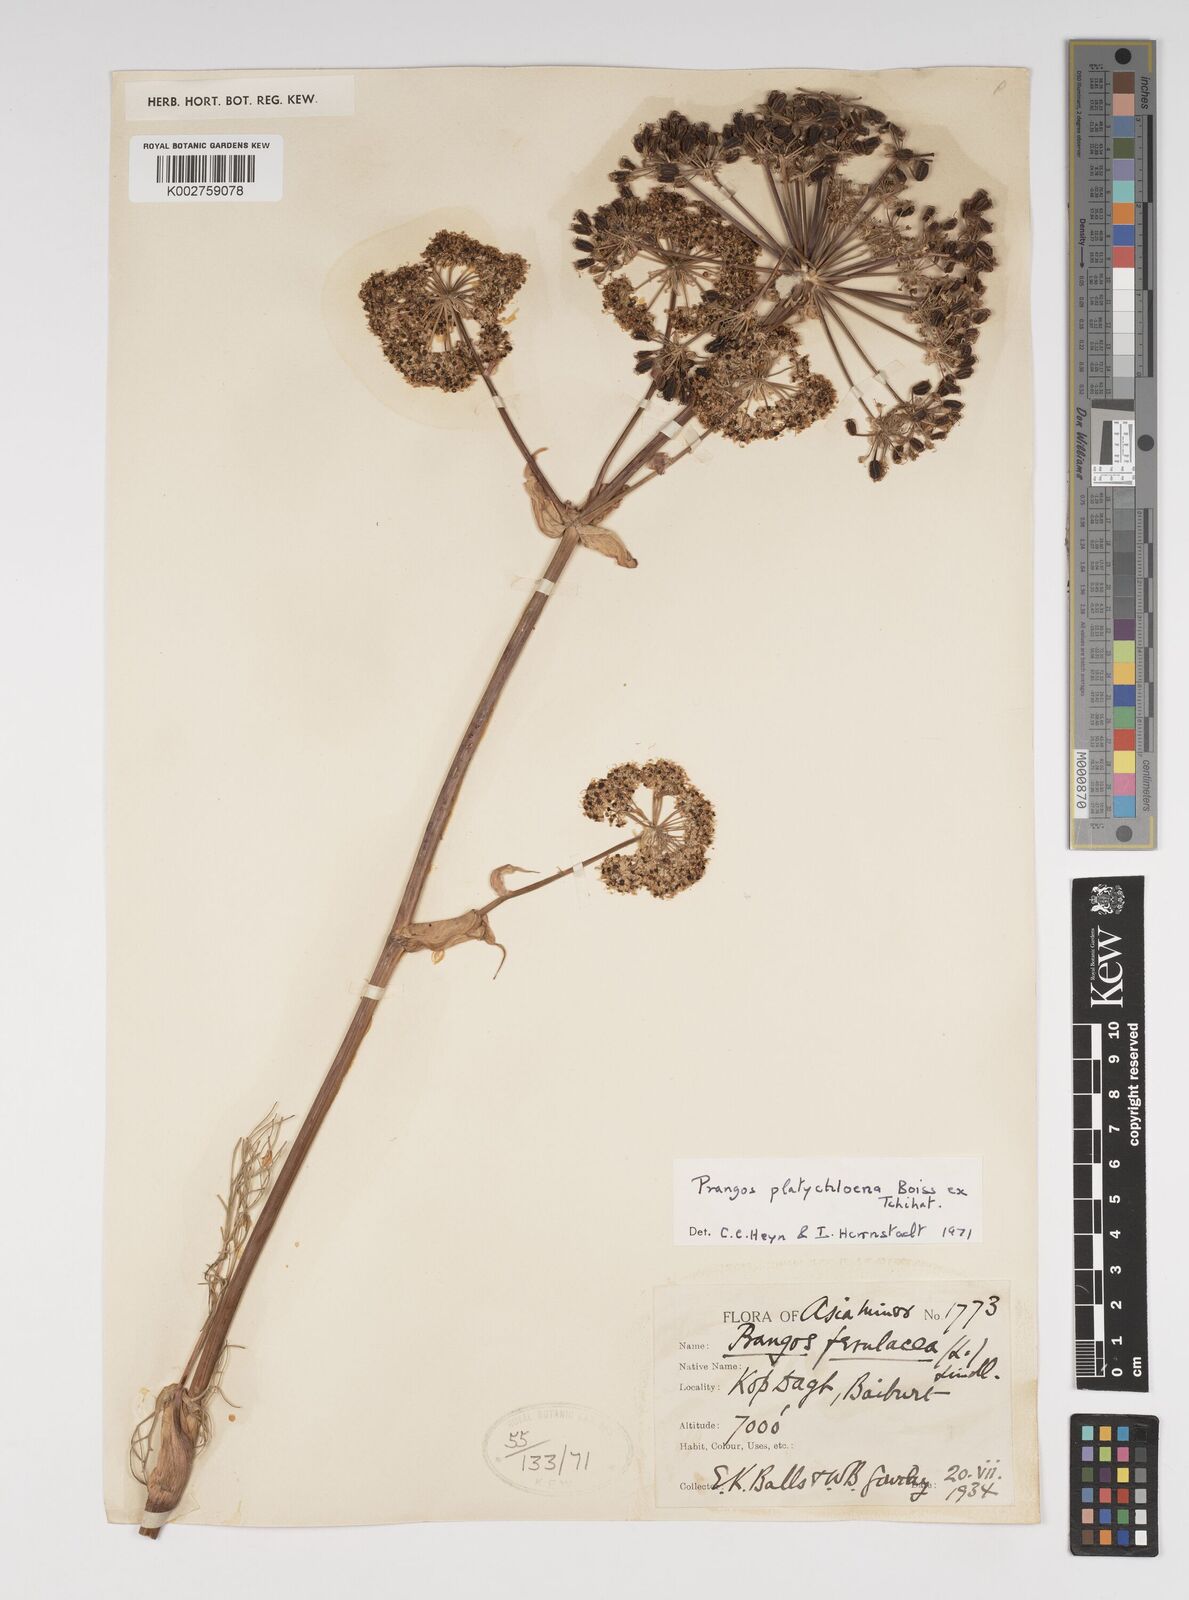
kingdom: Plantae
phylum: Tracheophyta
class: Magnoliopsida
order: Apiales
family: Apiaceae
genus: Prangos
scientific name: Prangos platychlaena
